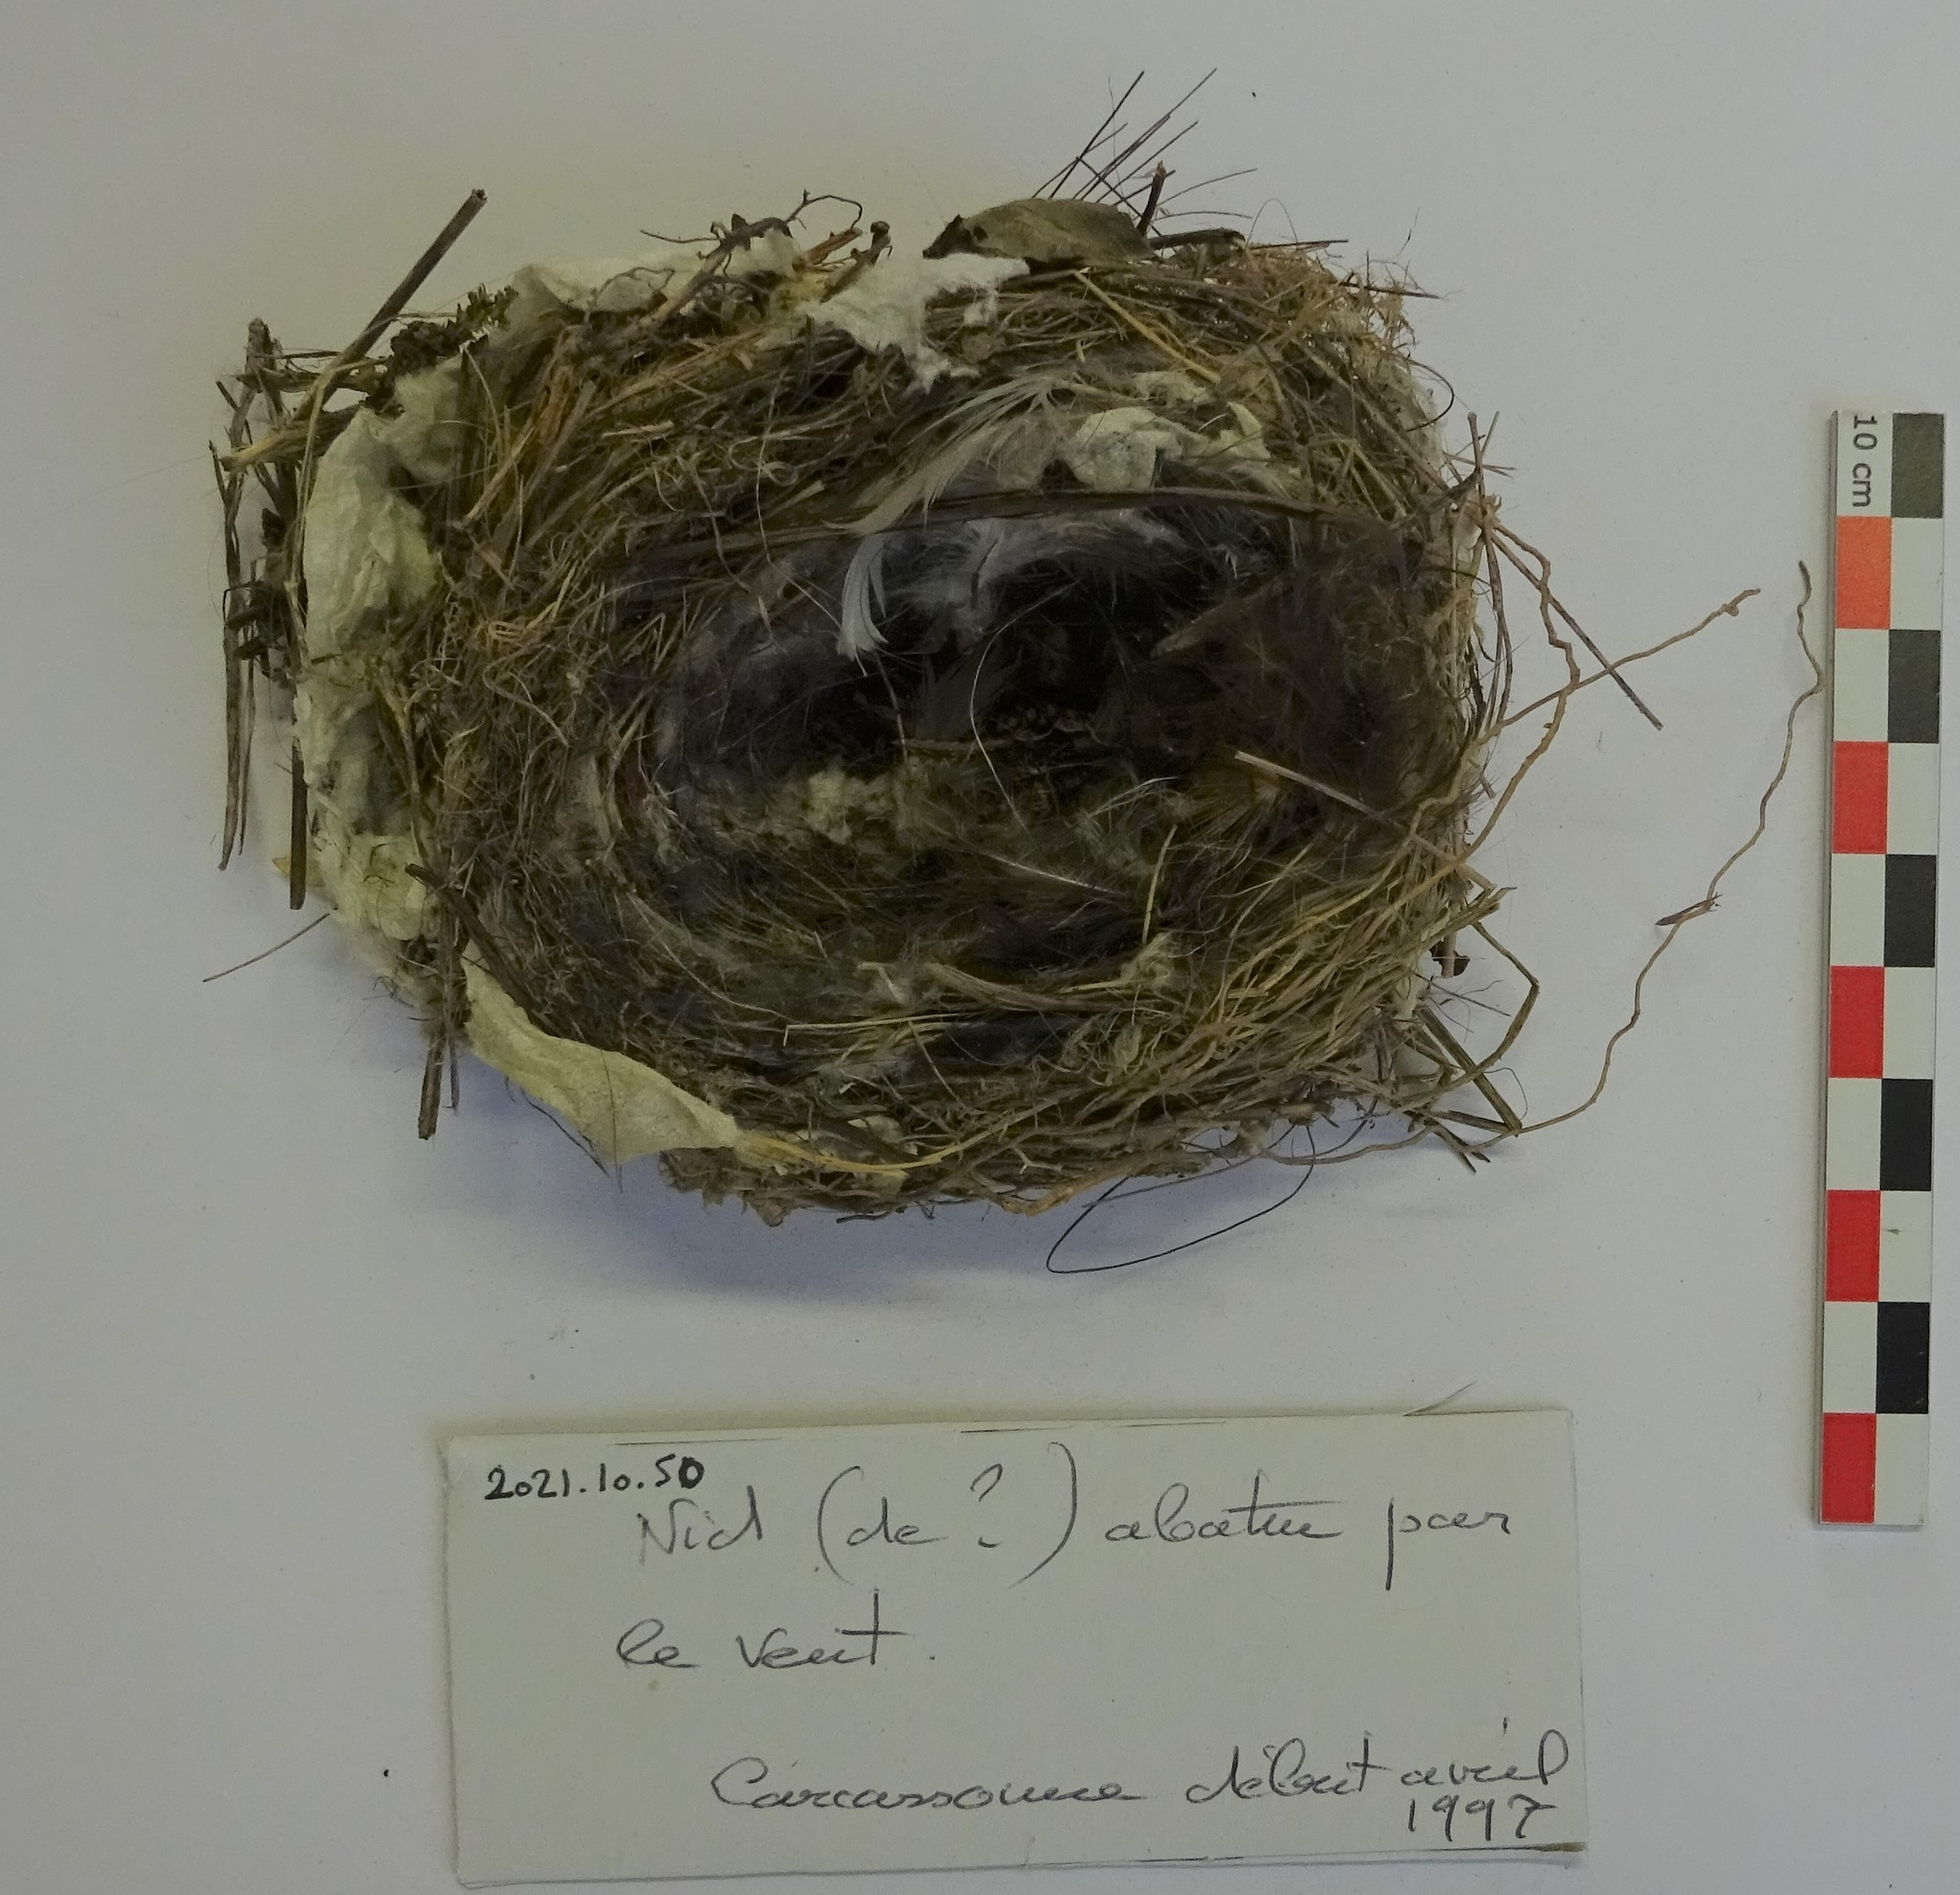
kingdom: Animalia
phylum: Chordata
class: Aves
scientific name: Aves
